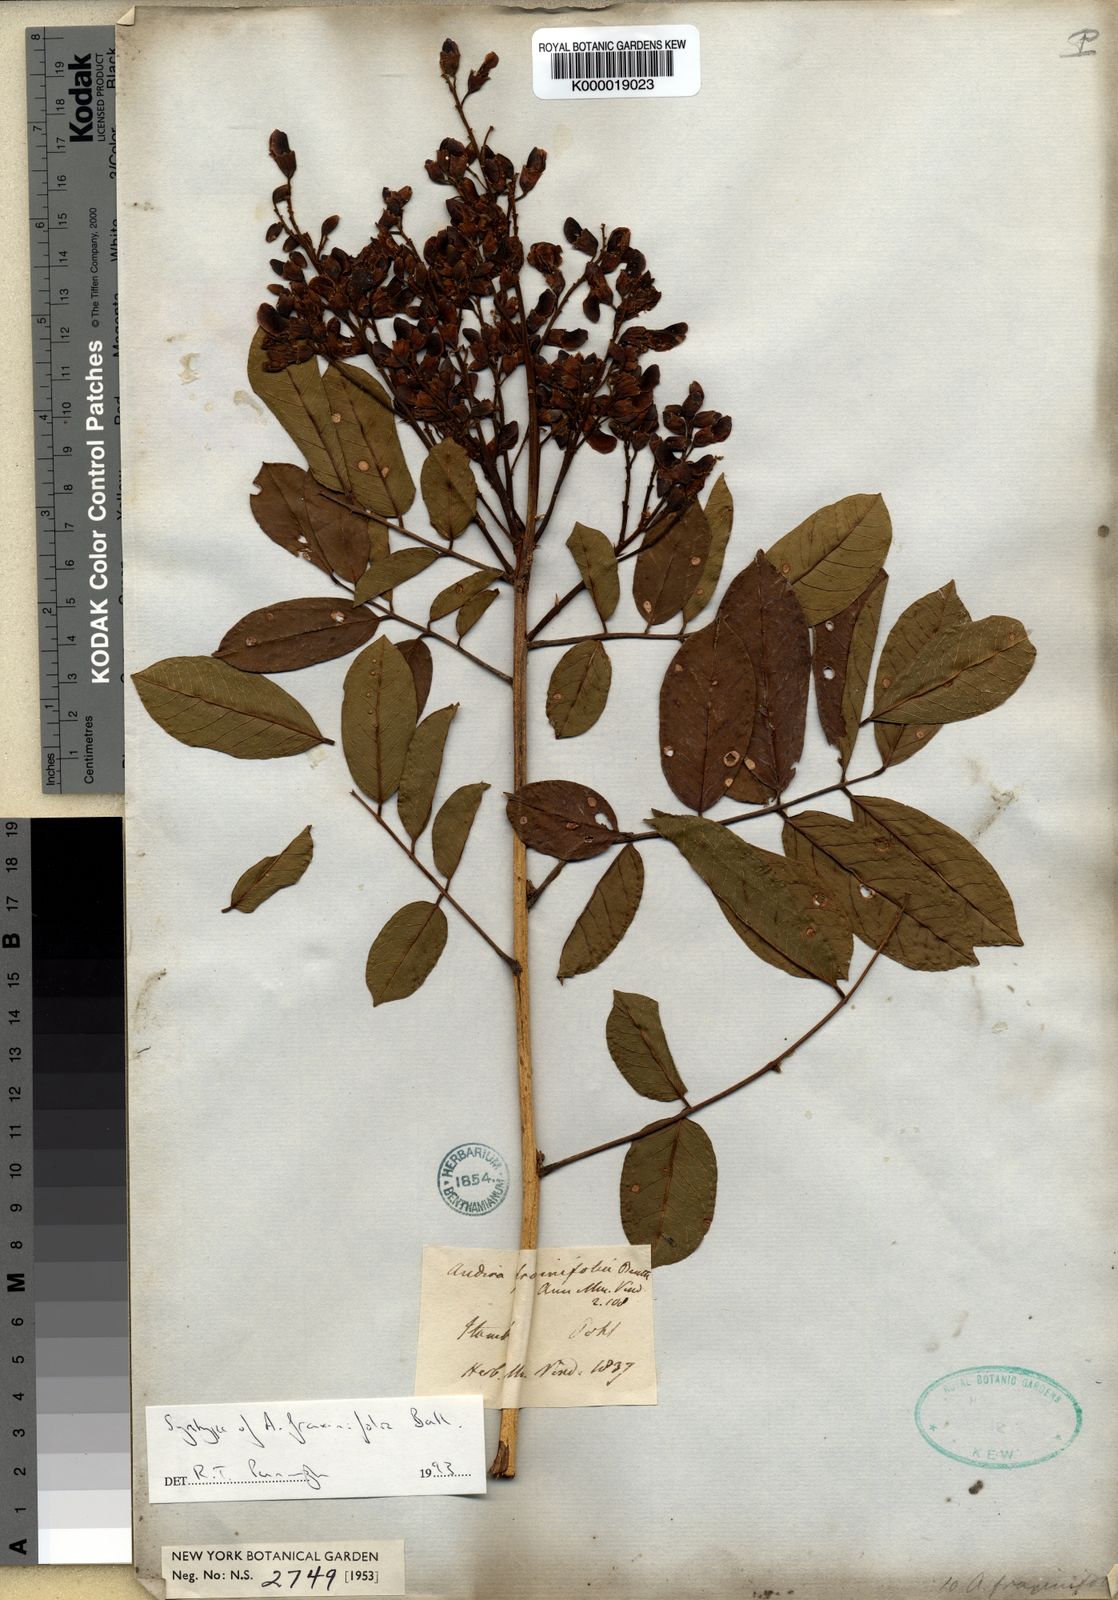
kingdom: Plantae
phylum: Tracheophyta
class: Magnoliopsida
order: Fabales
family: Fabaceae
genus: Andira
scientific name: Andira fraxinifolia
